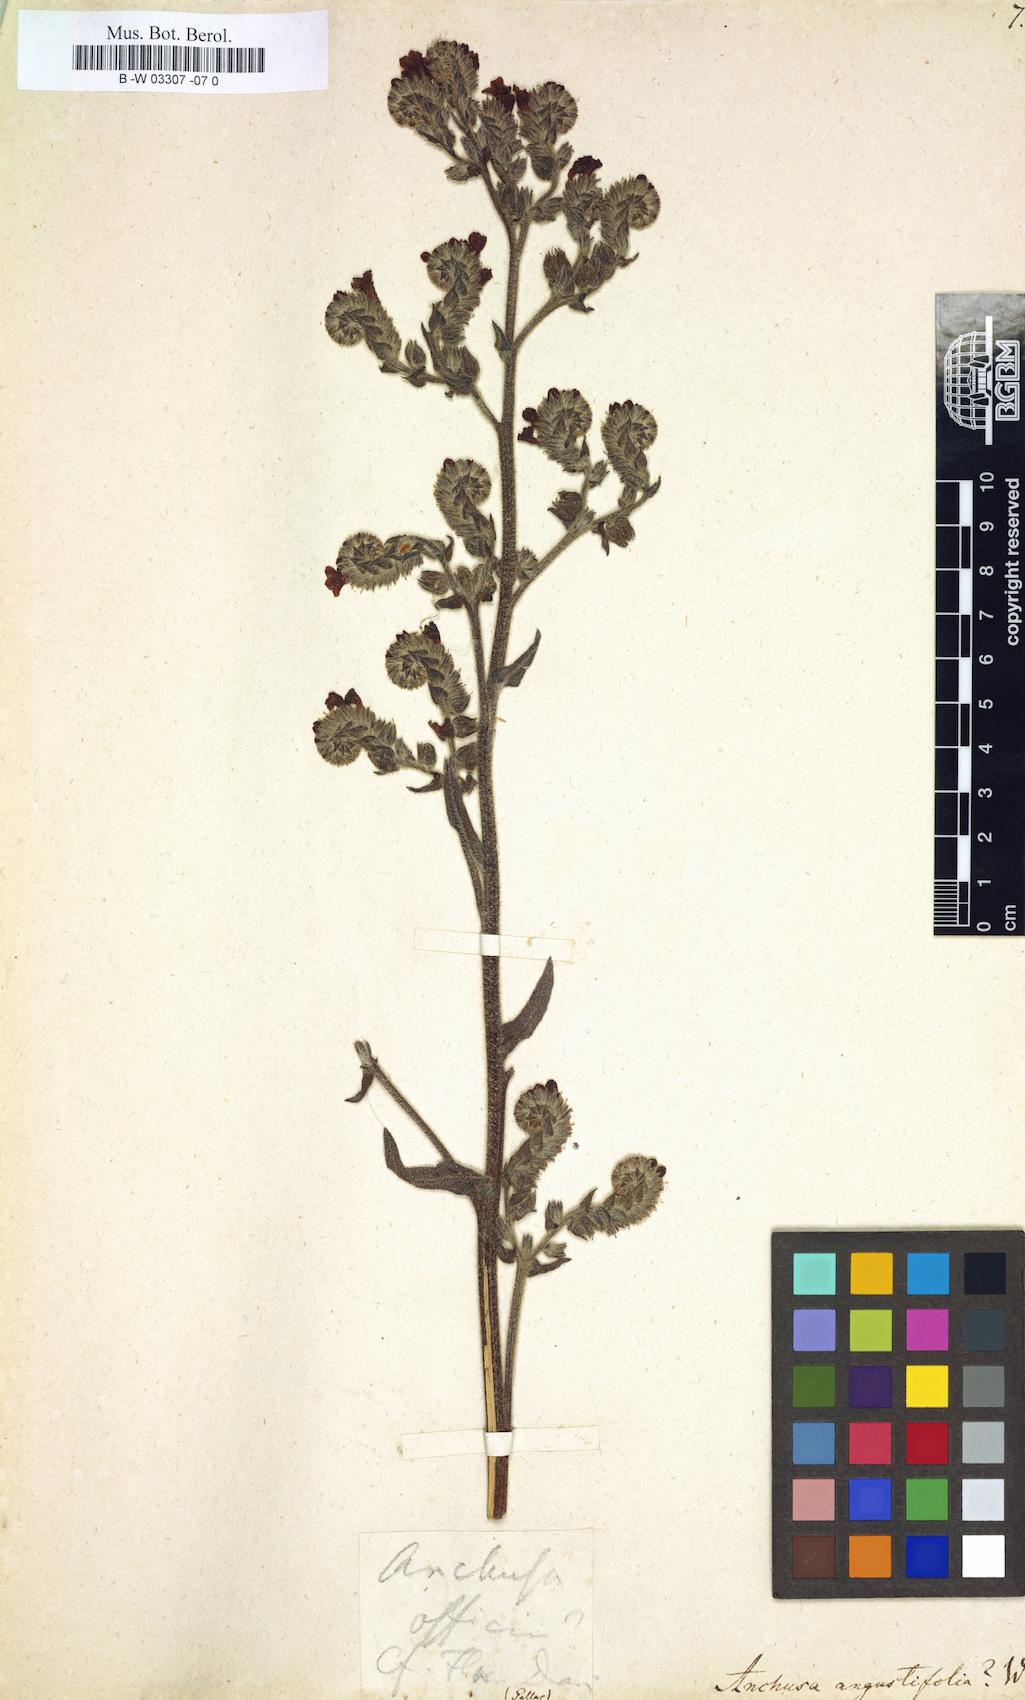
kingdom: Plantae
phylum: Tracheophyta
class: Magnoliopsida
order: Boraginales
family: Boraginaceae
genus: Anchusa
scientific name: Anchusa officinalis
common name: Alkanet
